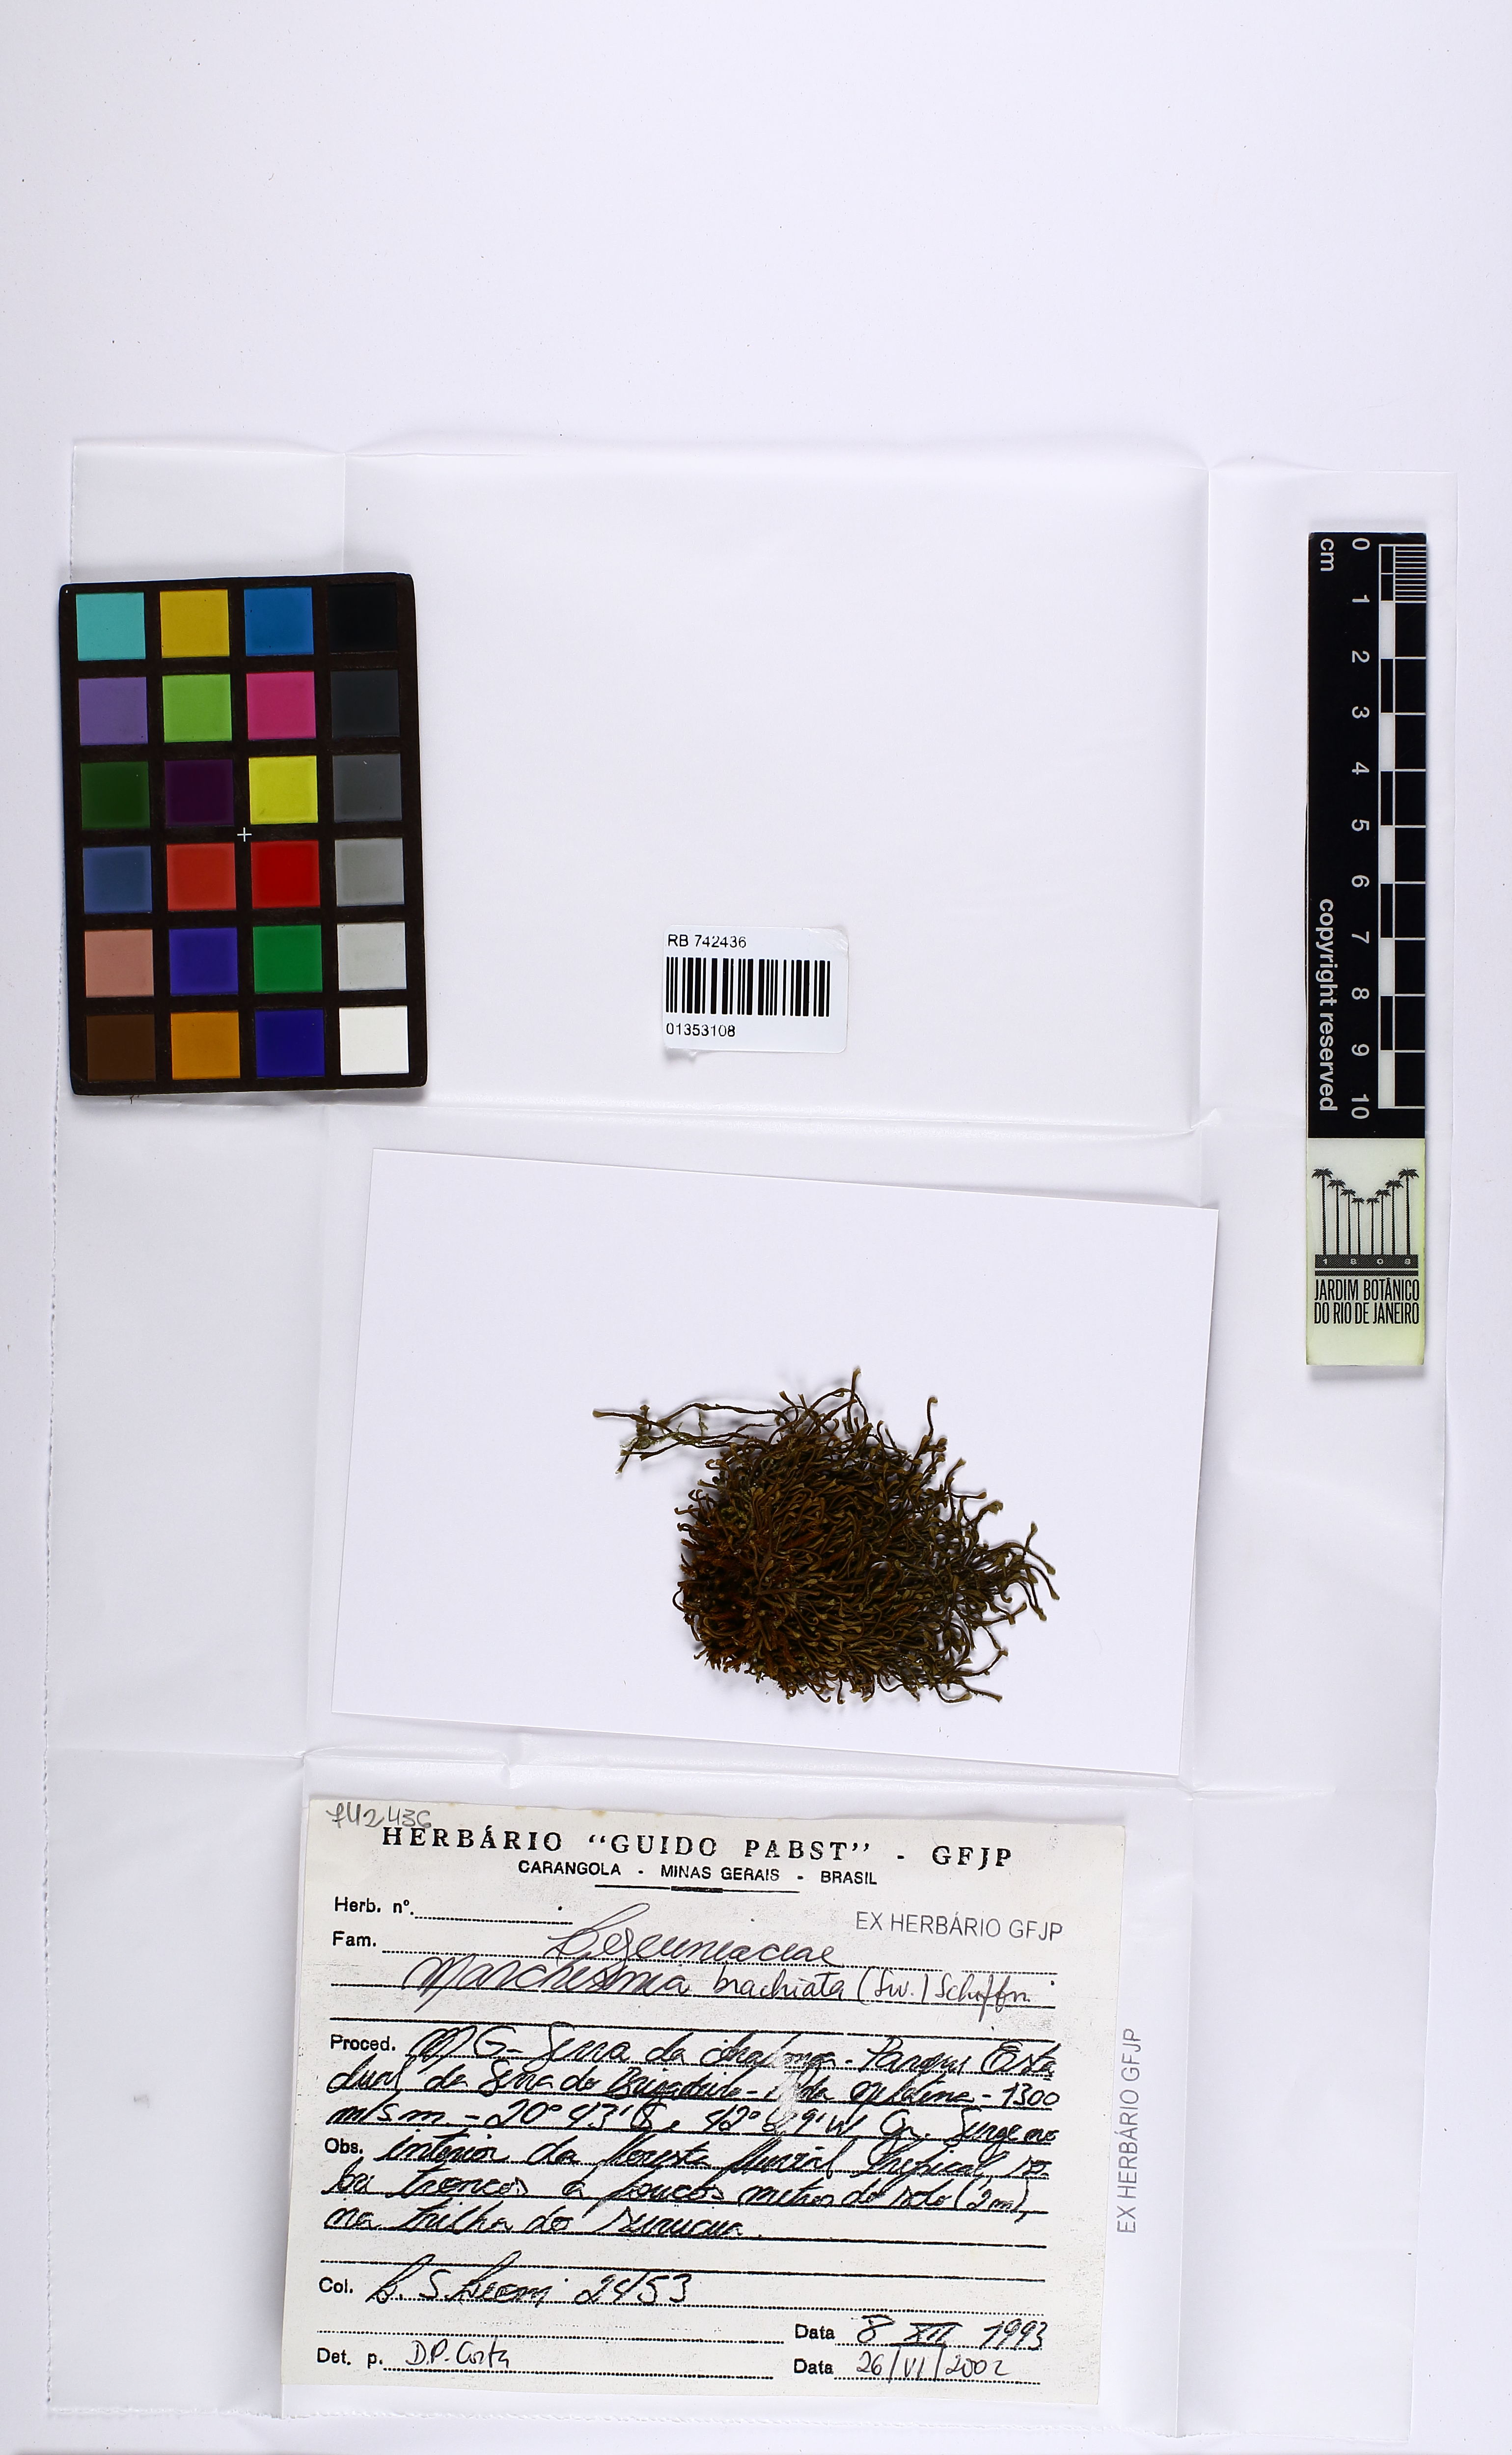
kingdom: Plantae
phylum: Marchantiophyta
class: Jungermanniopsida
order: Porellales
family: Lejeuneaceae
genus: Marchesinia
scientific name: Marchesinia brachiata
